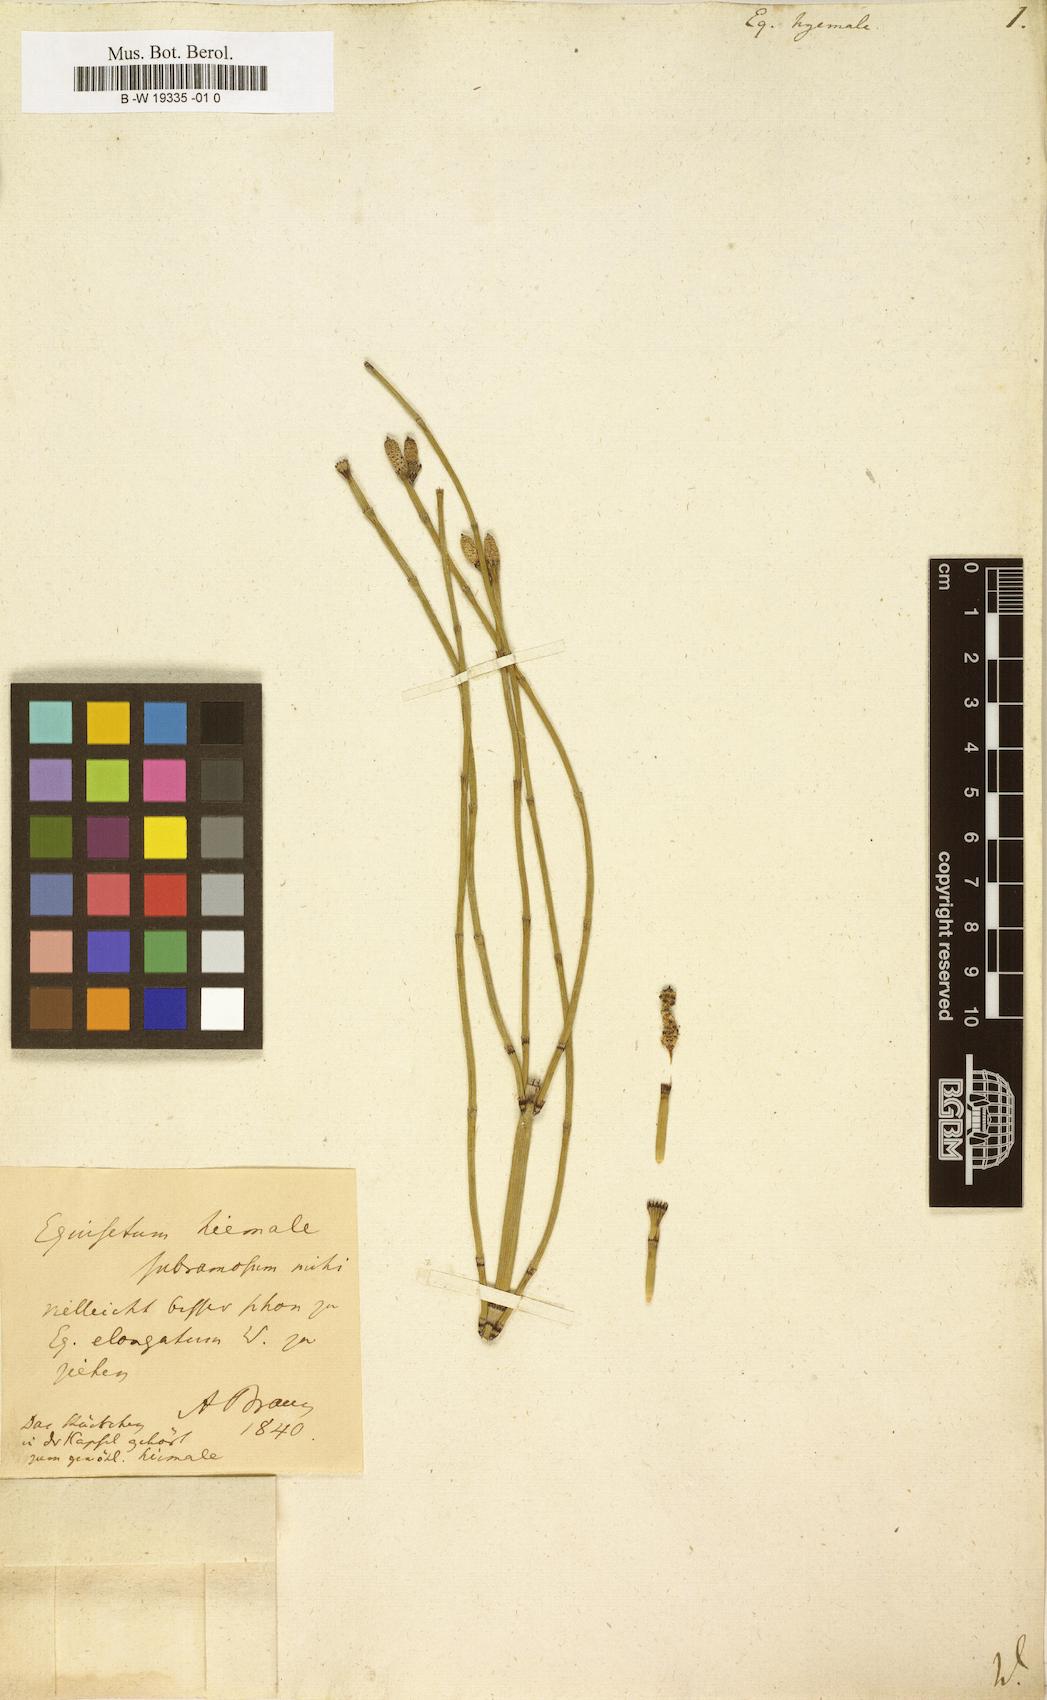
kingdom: Plantae
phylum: Tracheophyta
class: Polypodiopsida
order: Equisetales
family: Equisetaceae
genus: Equisetum
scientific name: Equisetum hyemale
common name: Rough horsetail
